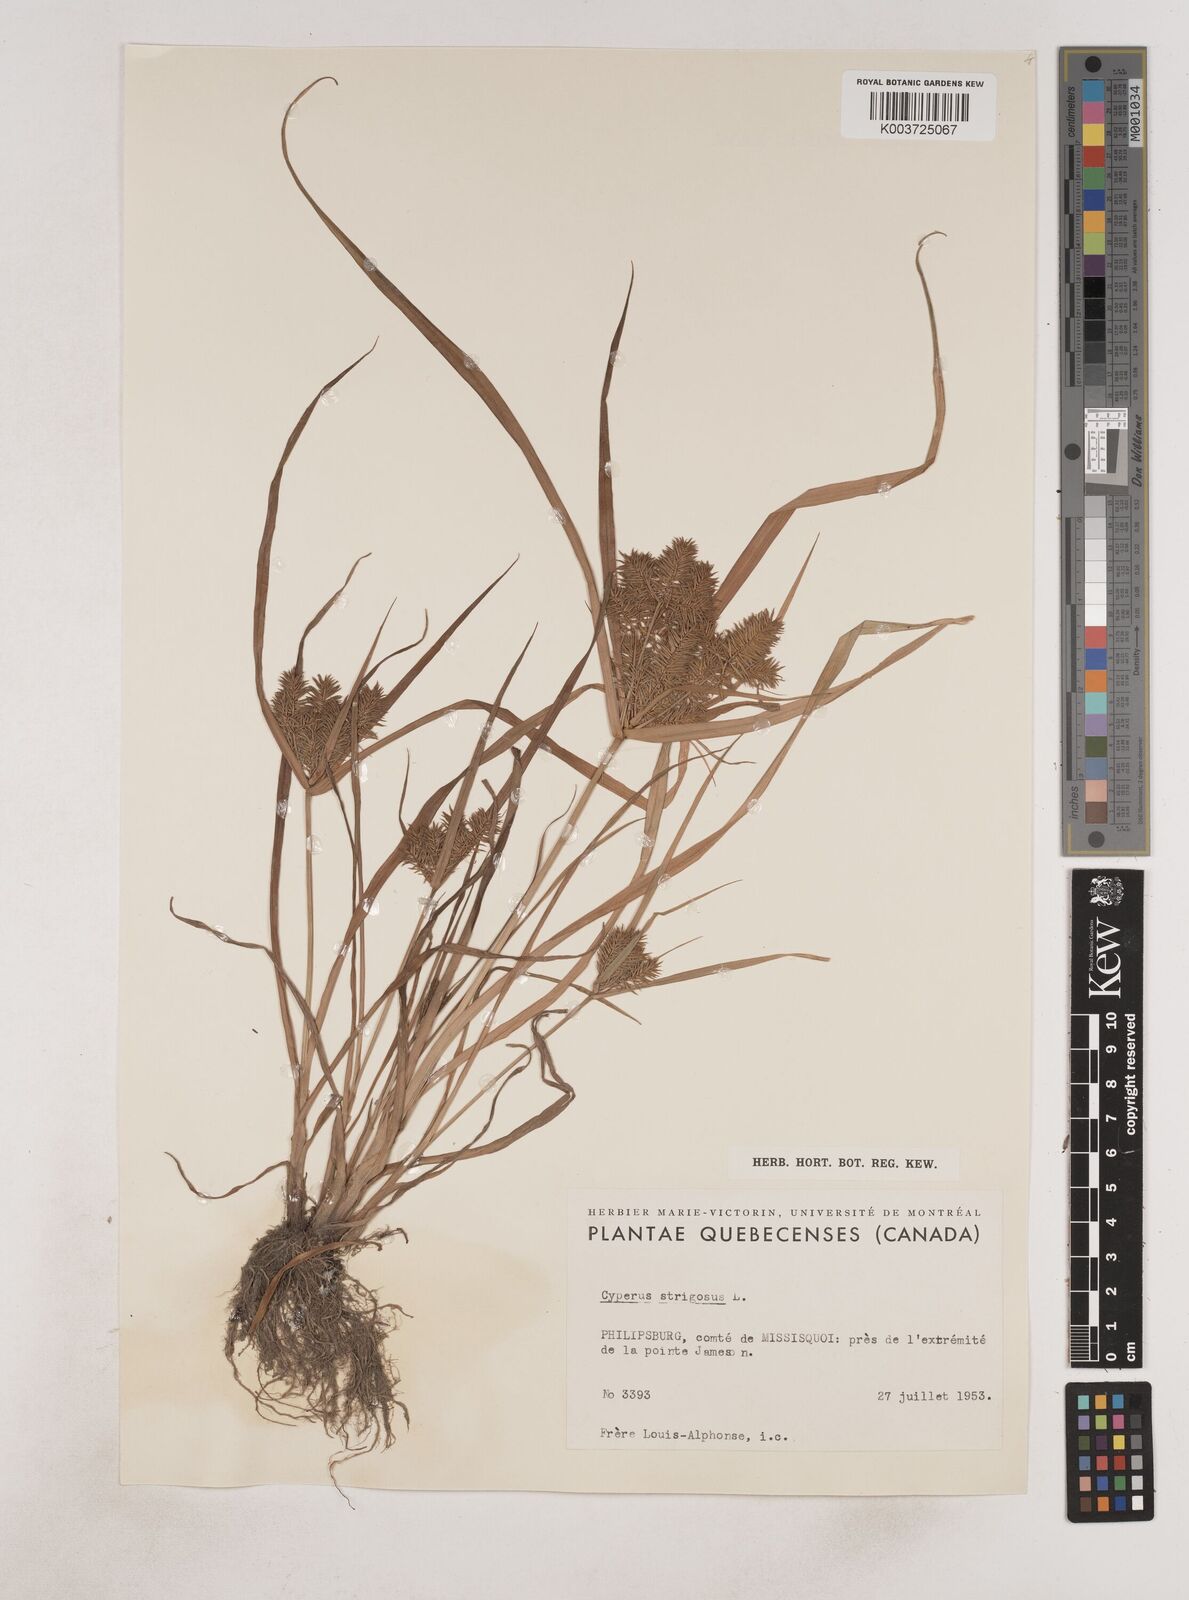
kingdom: Plantae
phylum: Tracheophyta
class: Liliopsida
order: Poales
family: Cyperaceae
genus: Cyperus
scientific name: Cyperus strigosus
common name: False nutsedge
